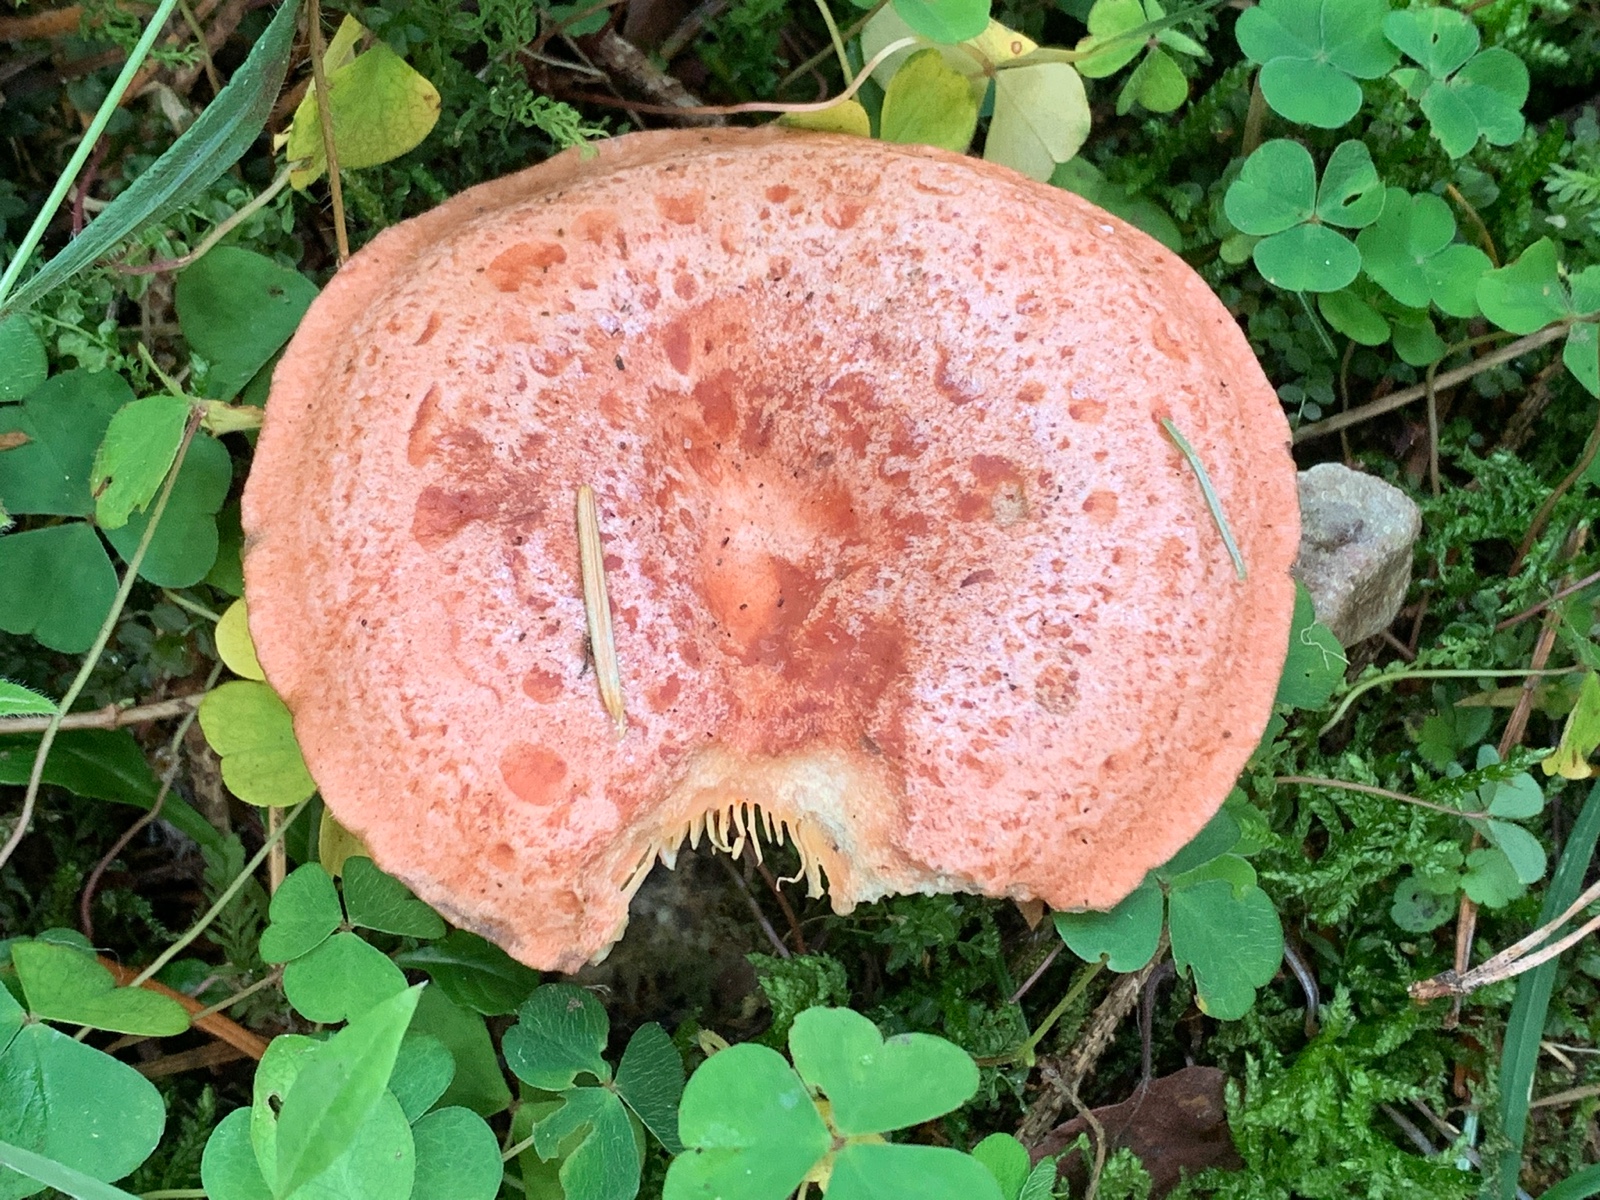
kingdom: Fungi
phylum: Basidiomycota
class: Agaricomycetes
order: Russulales
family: Russulaceae
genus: Lactarius
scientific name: Lactarius deliciosus
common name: velsmagende mælkehat
